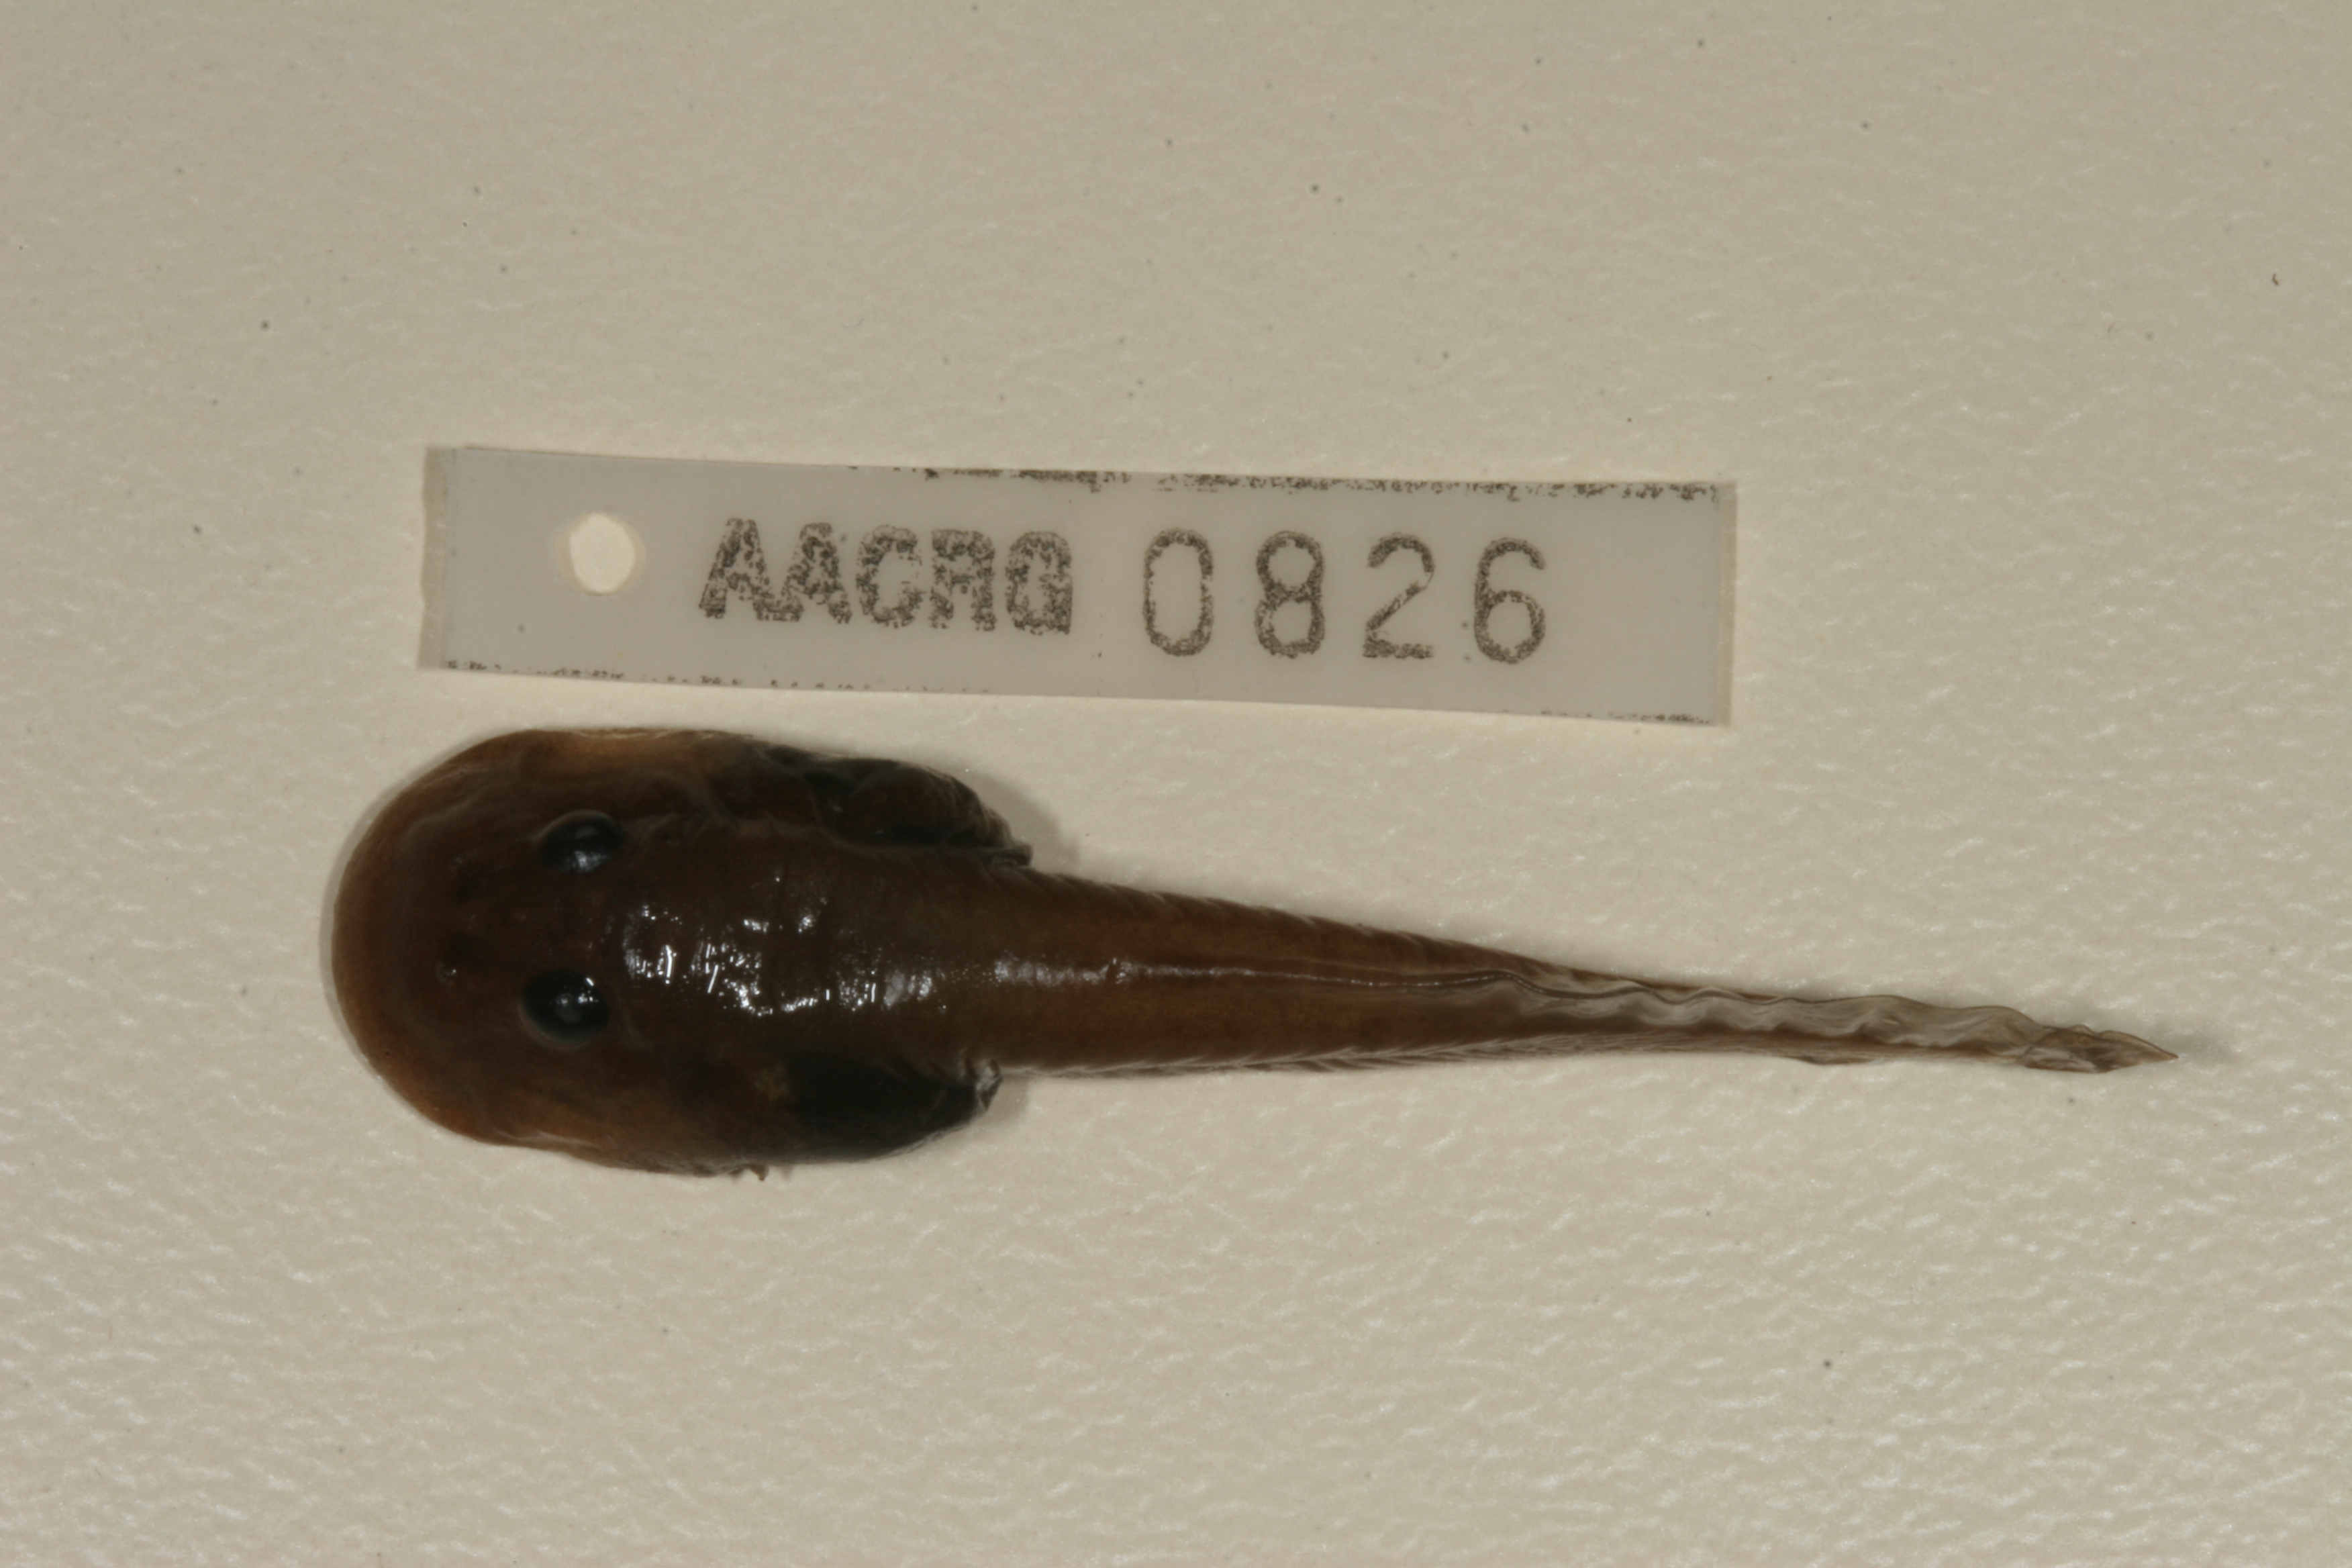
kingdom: Animalia
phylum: Chordata
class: Amphibia
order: Anura
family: Heleophrynidae
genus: Heleophryne
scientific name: Heleophryne orientalis
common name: East cape ghost frog
